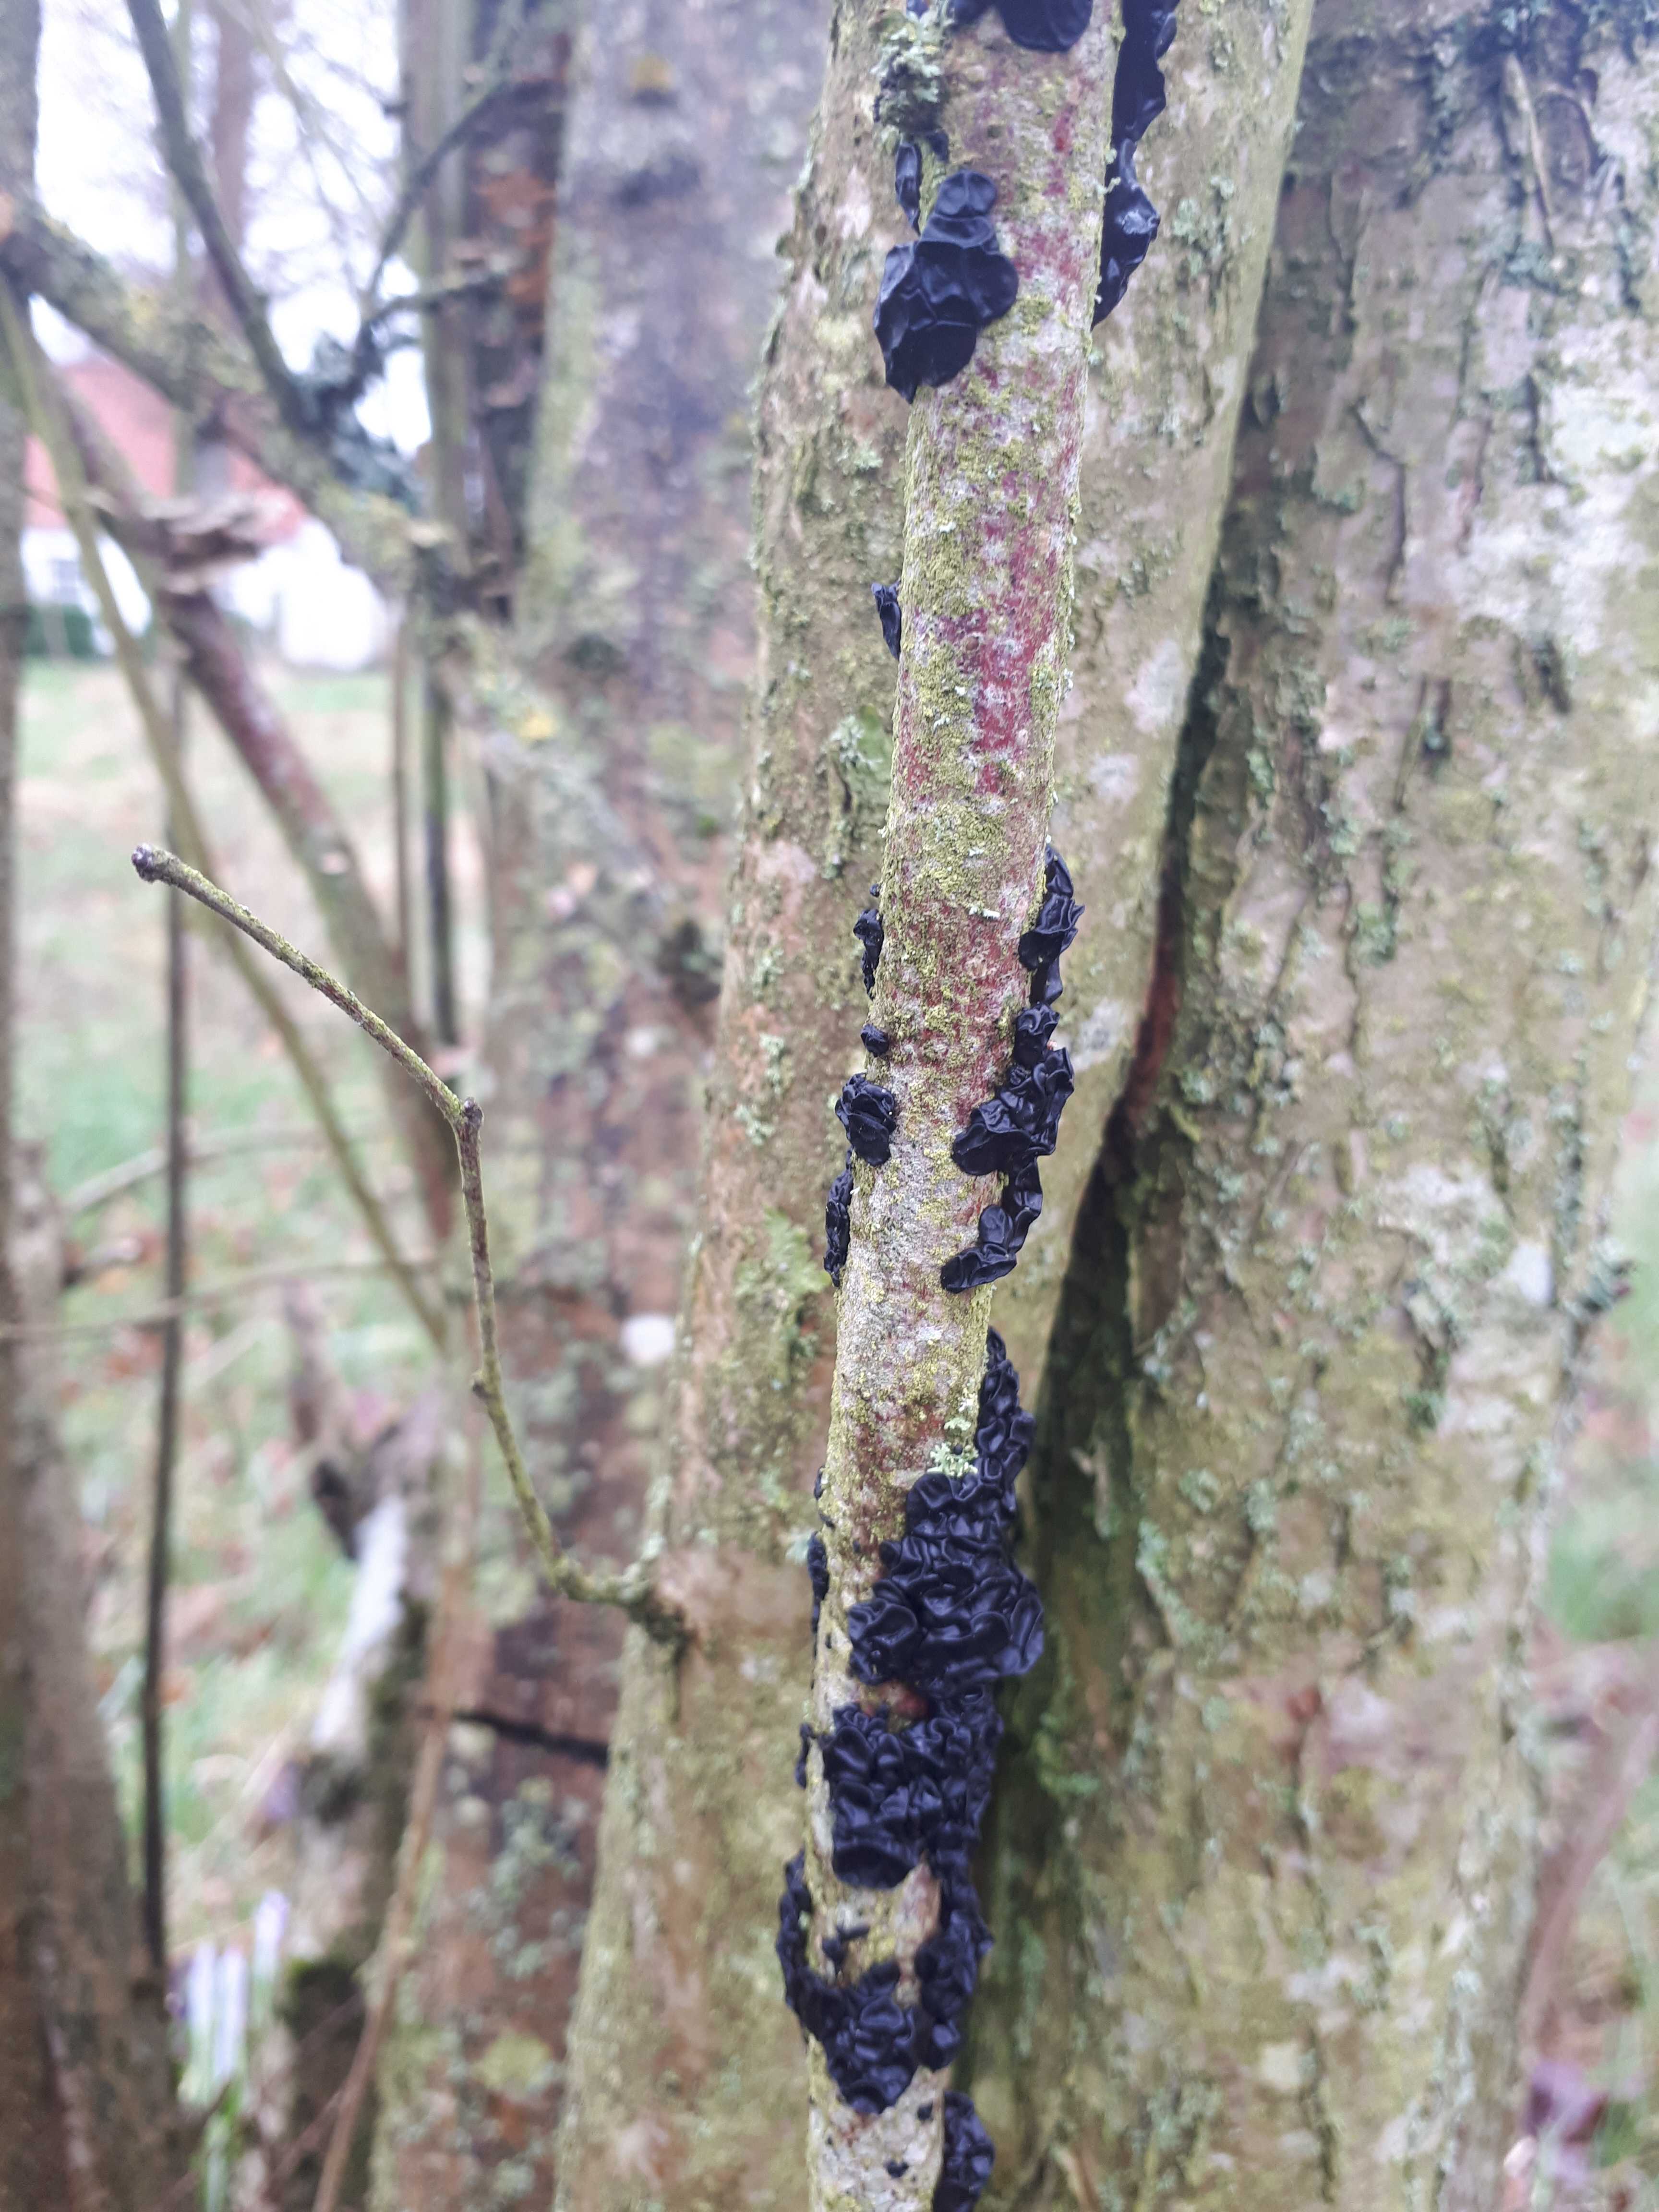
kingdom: Fungi
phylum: Basidiomycota
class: Agaricomycetes
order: Auriculariales
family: Auriculariaceae
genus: Exidia
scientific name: Exidia nigricans
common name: almindelig bævretop
